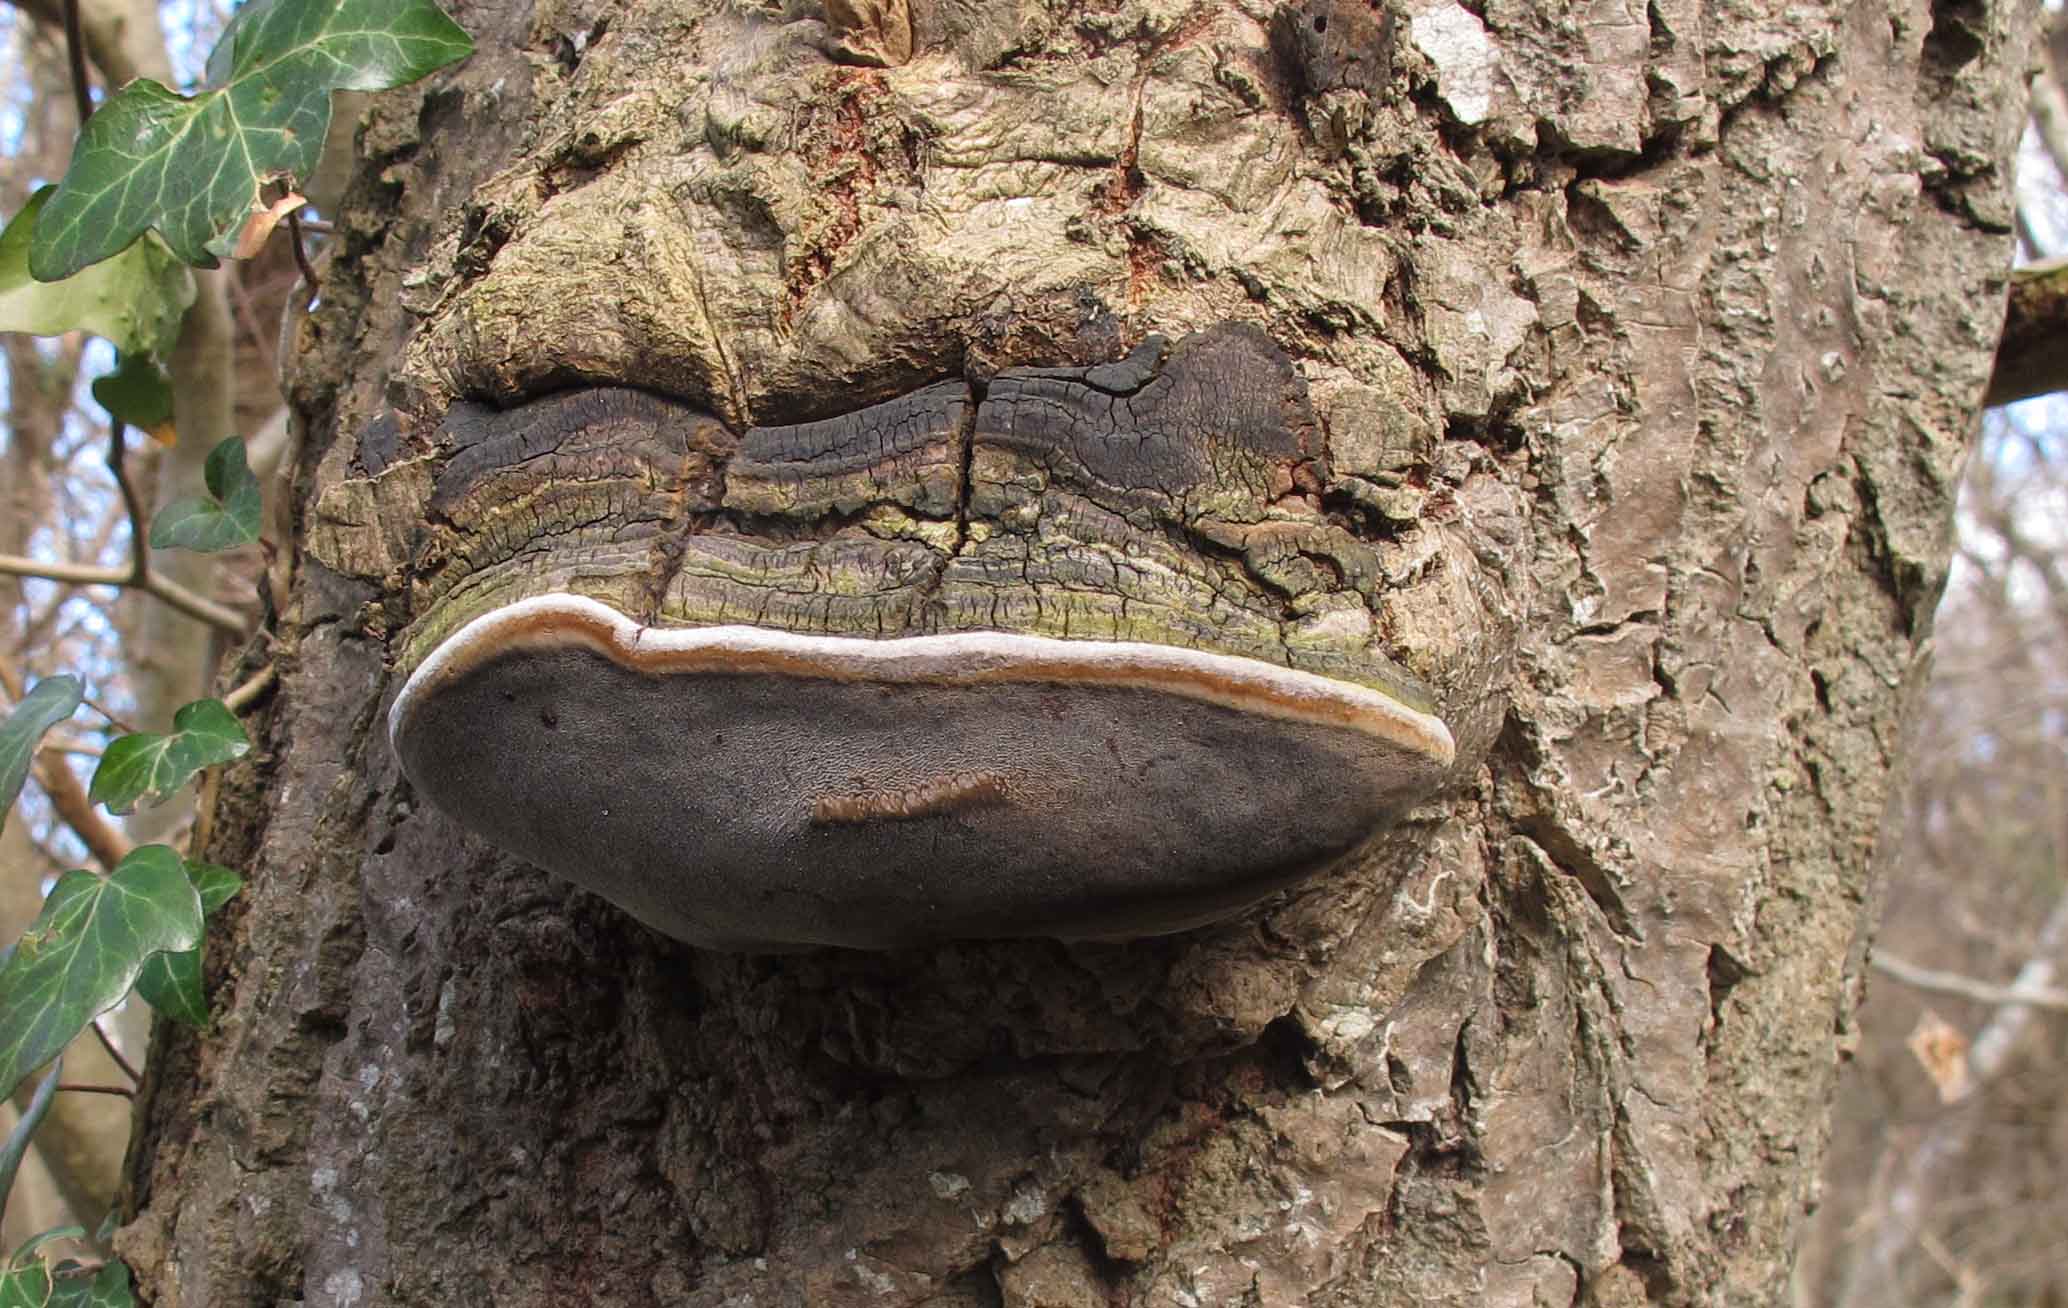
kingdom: Fungi
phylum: Basidiomycota
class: Agaricomycetes
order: Hymenochaetales
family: Hymenochaetaceae
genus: Phellinus
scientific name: Phellinus tremulae
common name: aspe-ildporesvamp
